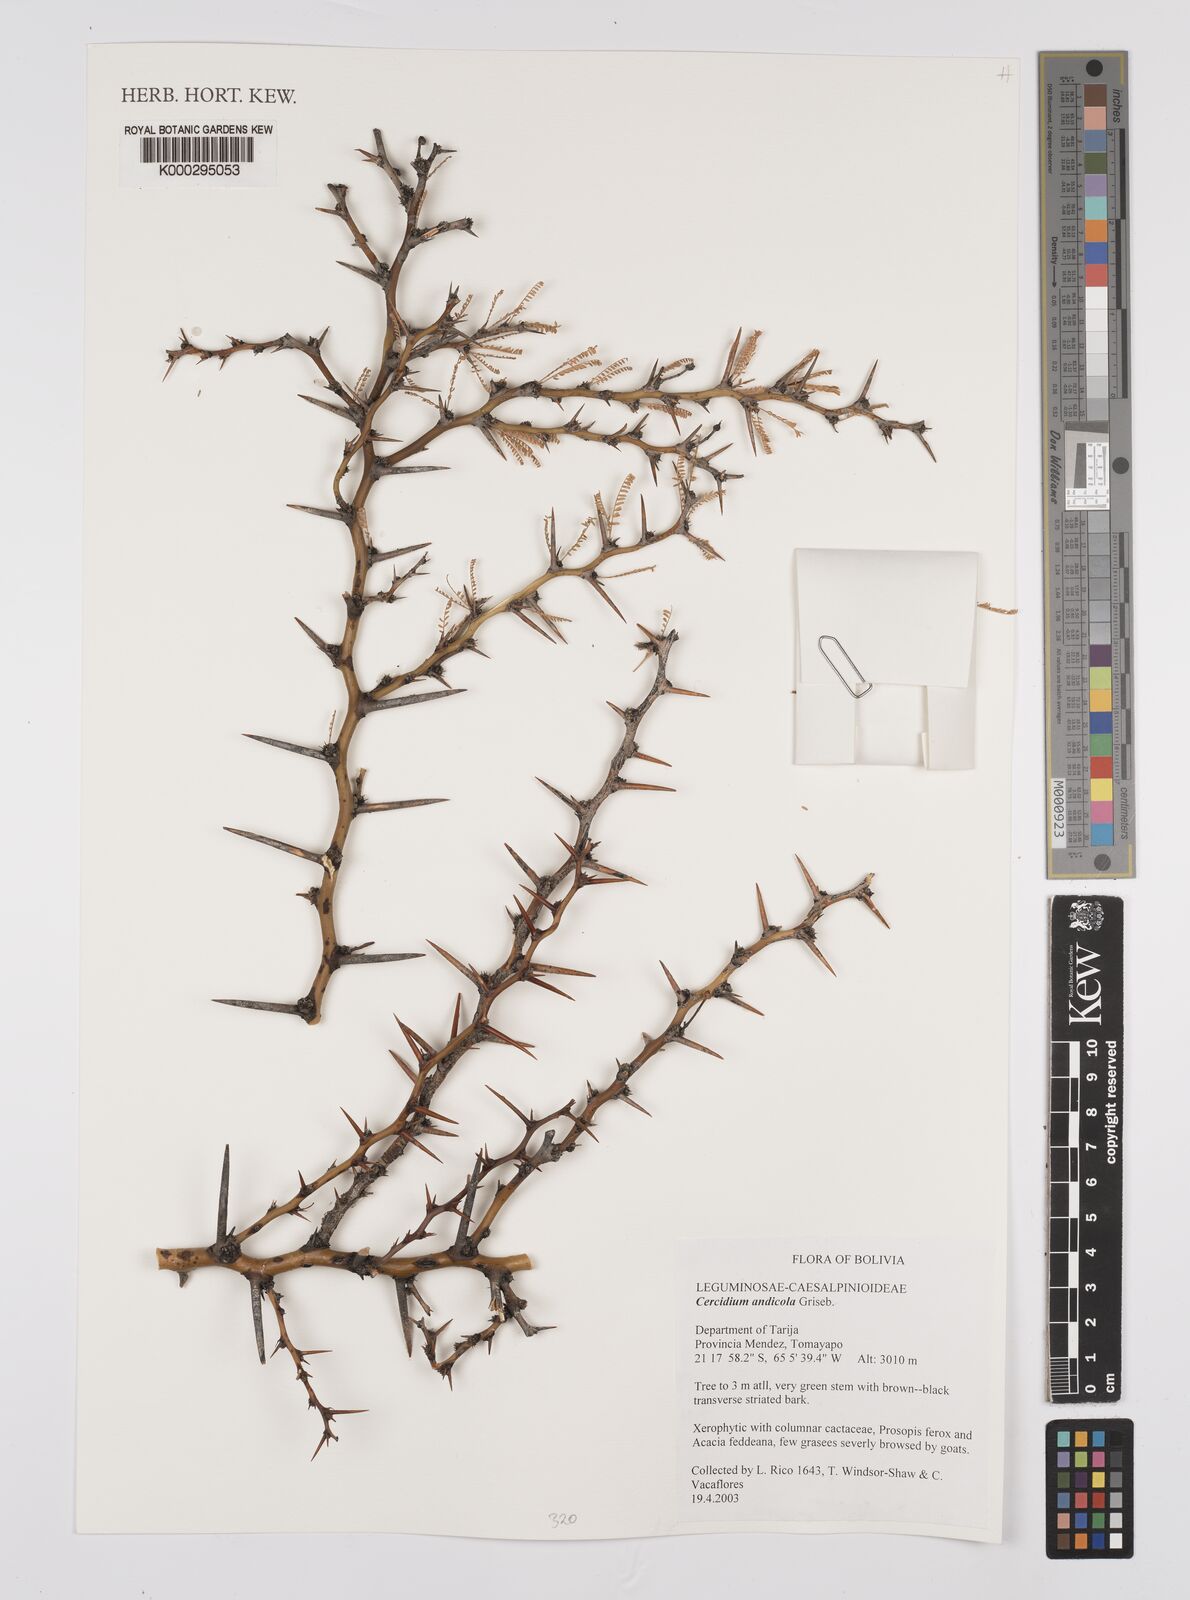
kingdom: Plantae
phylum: Tracheophyta
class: Magnoliopsida
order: Fabales
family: Fabaceae
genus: Parkinsonia
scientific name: Parkinsonia andicola
